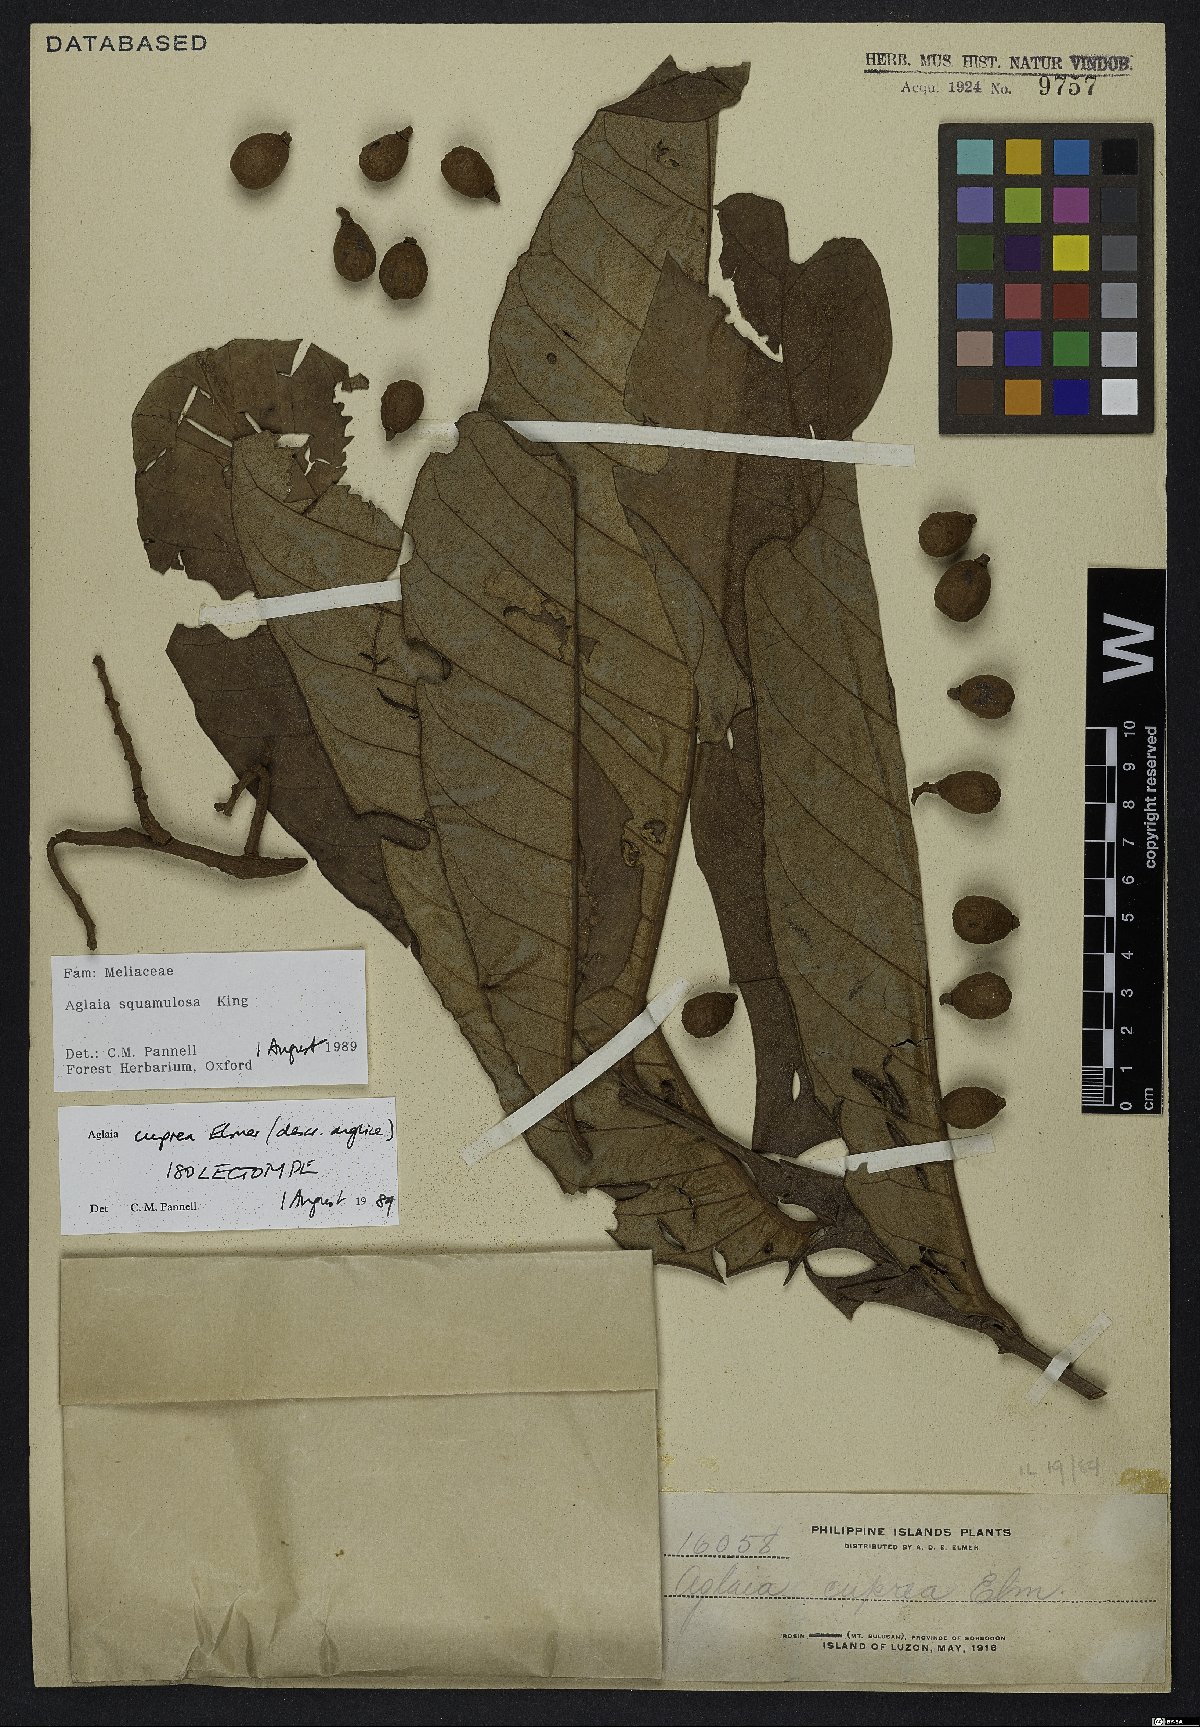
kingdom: Plantae
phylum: Tracheophyta
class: Magnoliopsida
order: Sapindales
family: Meliaceae
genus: Aglaia
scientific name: Aglaia squamulosa
